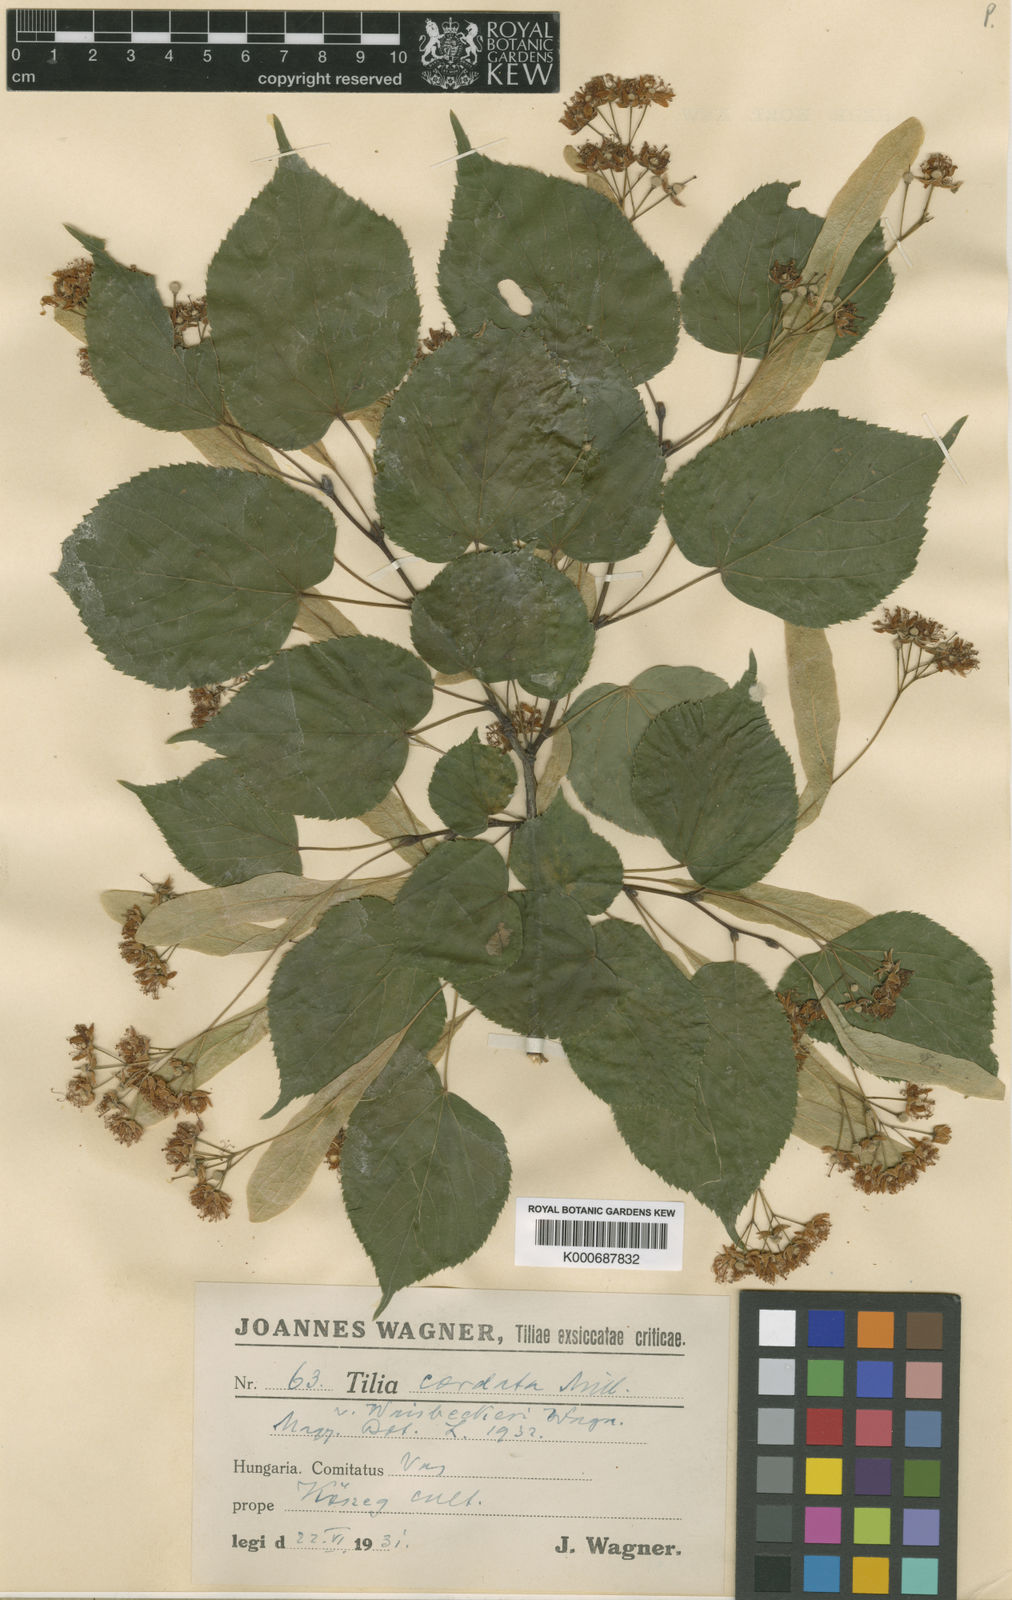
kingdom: Plantae
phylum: Tracheophyta
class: Magnoliopsida
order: Malvales
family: Malvaceae
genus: Tilia
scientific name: Tilia cordata
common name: Small-leaved lime
